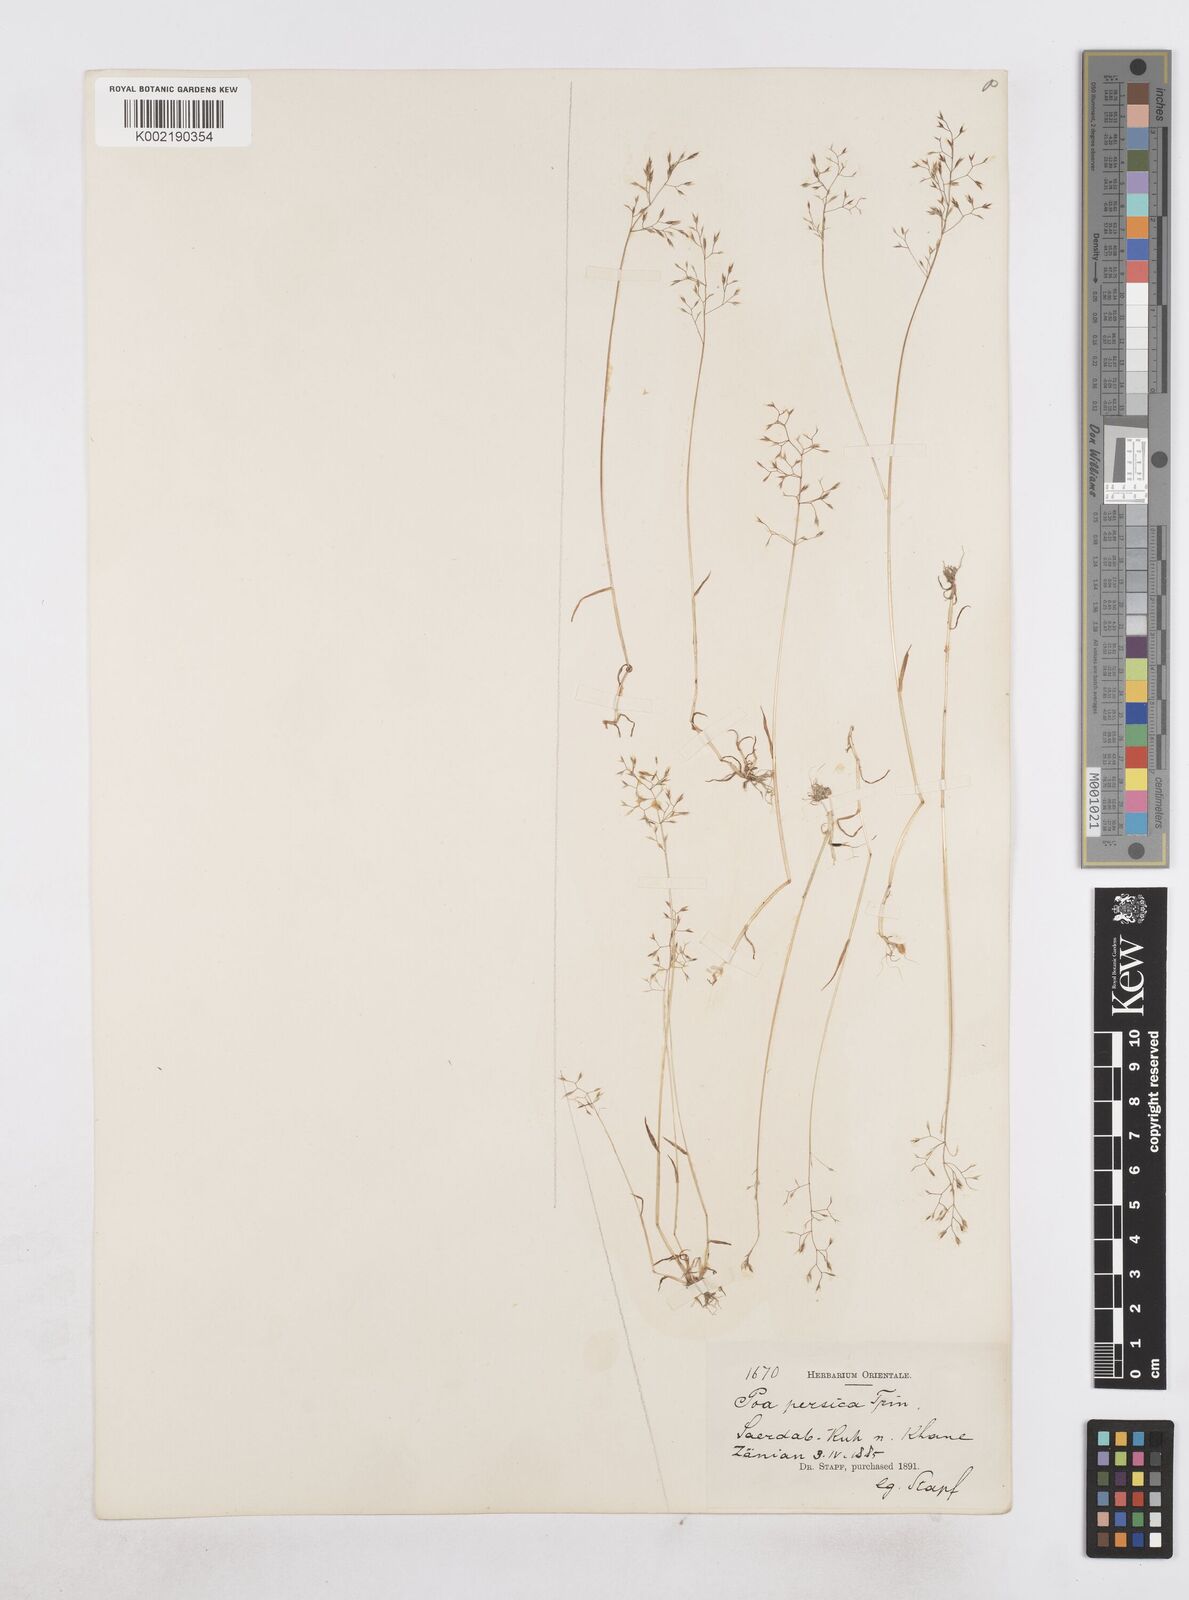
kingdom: Plantae
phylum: Tracheophyta
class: Liliopsida
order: Poales
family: Poaceae
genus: Poa
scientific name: Poa persica
